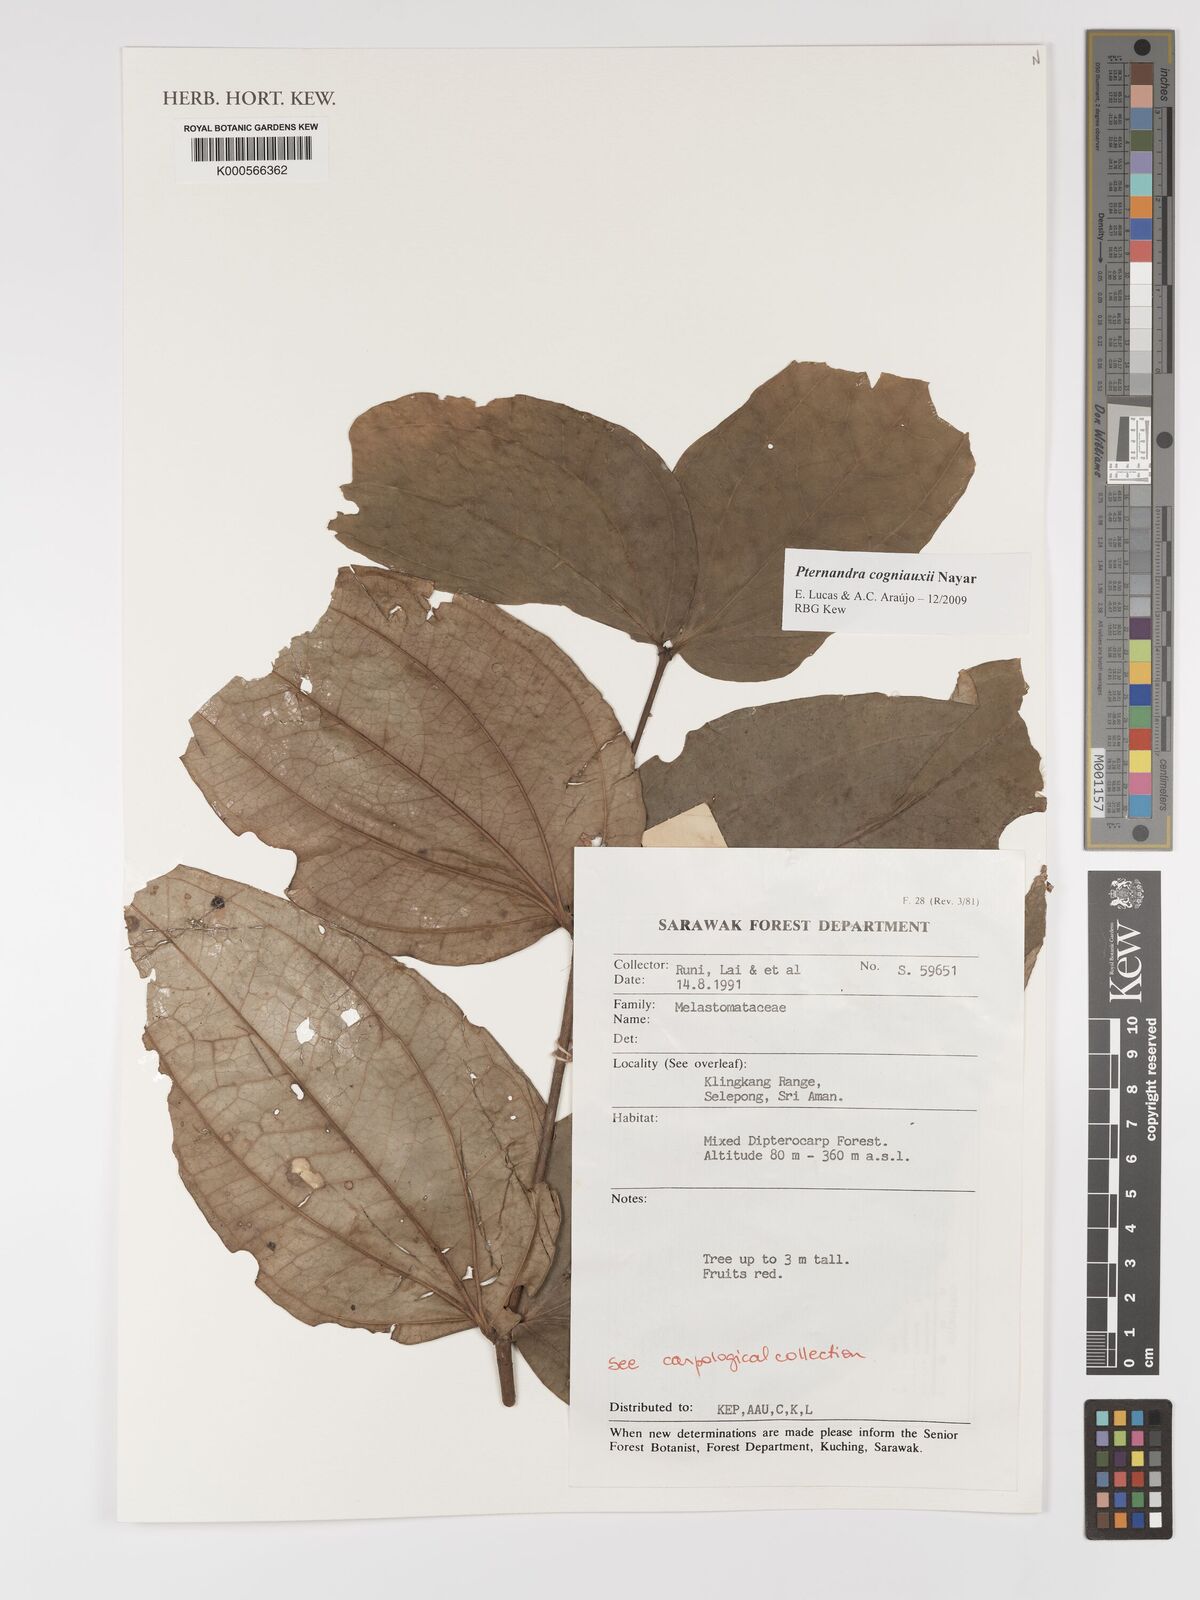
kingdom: Plantae
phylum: Tracheophyta
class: Magnoliopsida
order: Myrtales
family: Melastomataceae
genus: Pternandra
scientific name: Pternandra cogniauxii
